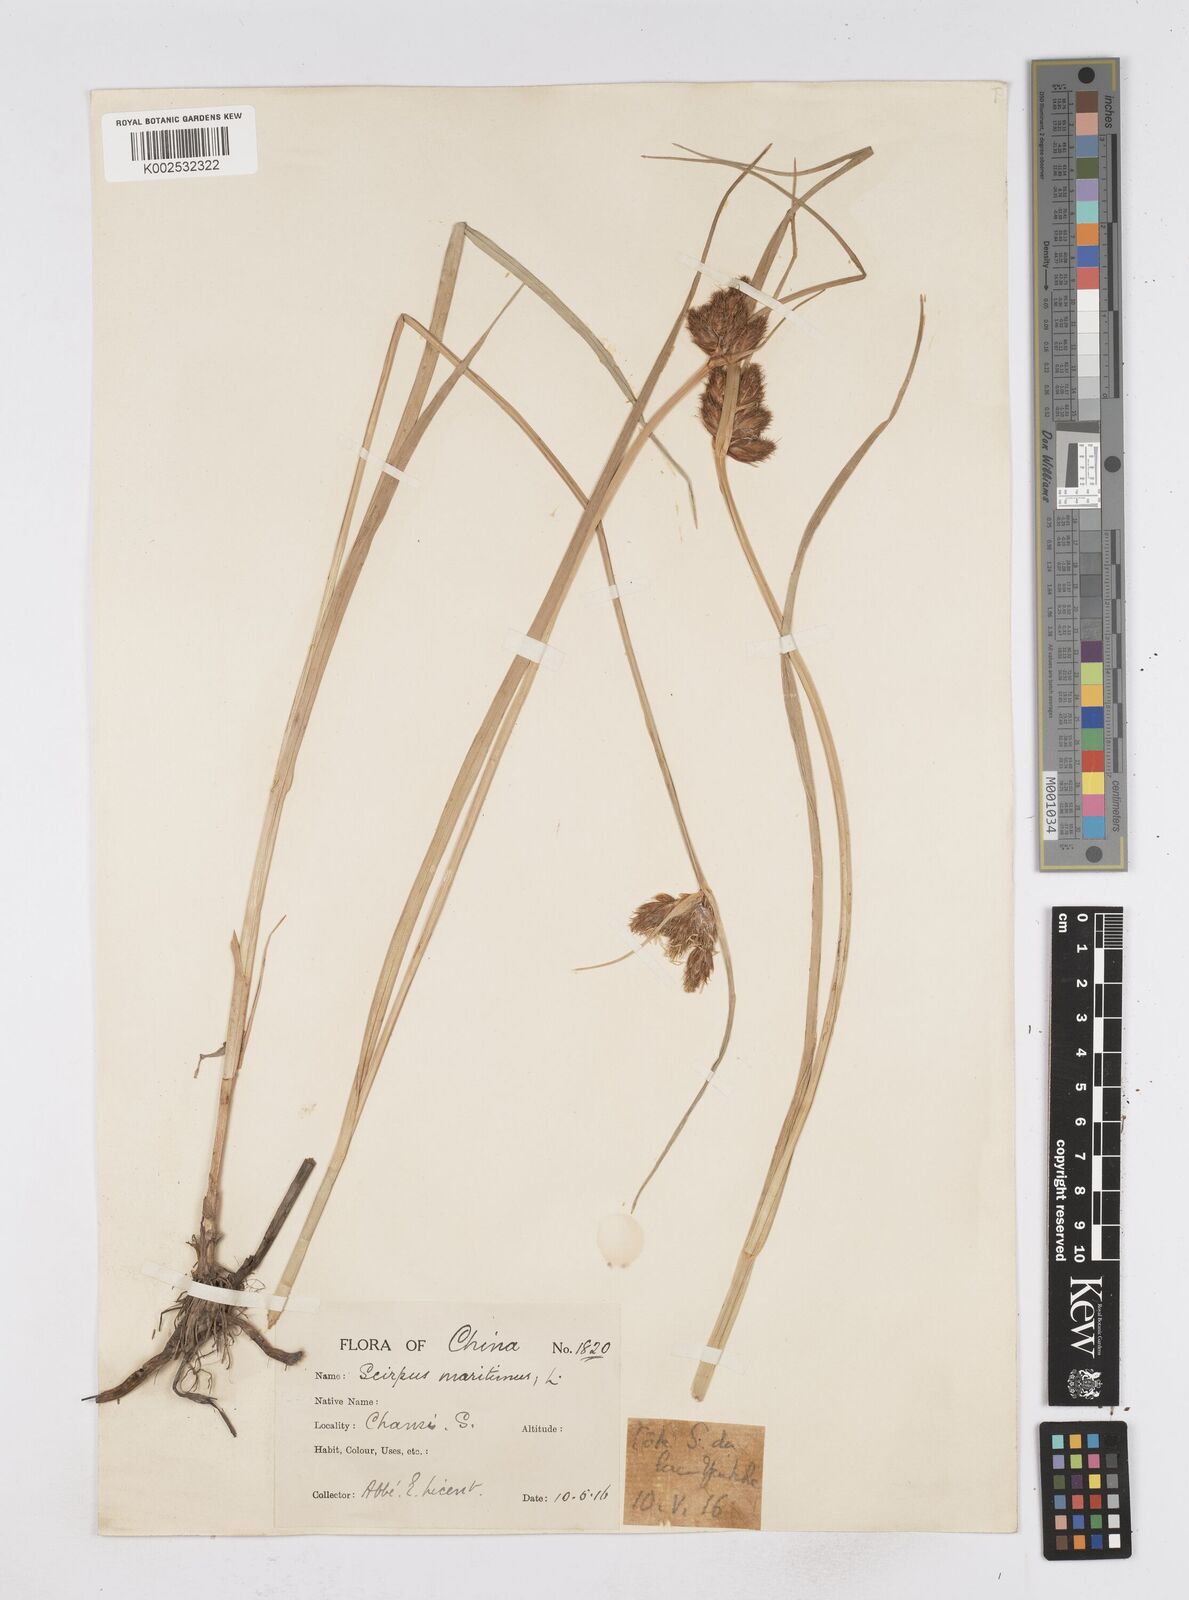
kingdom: Plantae
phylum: Tracheophyta
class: Liliopsida
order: Poales
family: Cyperaceae
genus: Bolboschoenus
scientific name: Bolboschoenus maritimus
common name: Sea club-rush
